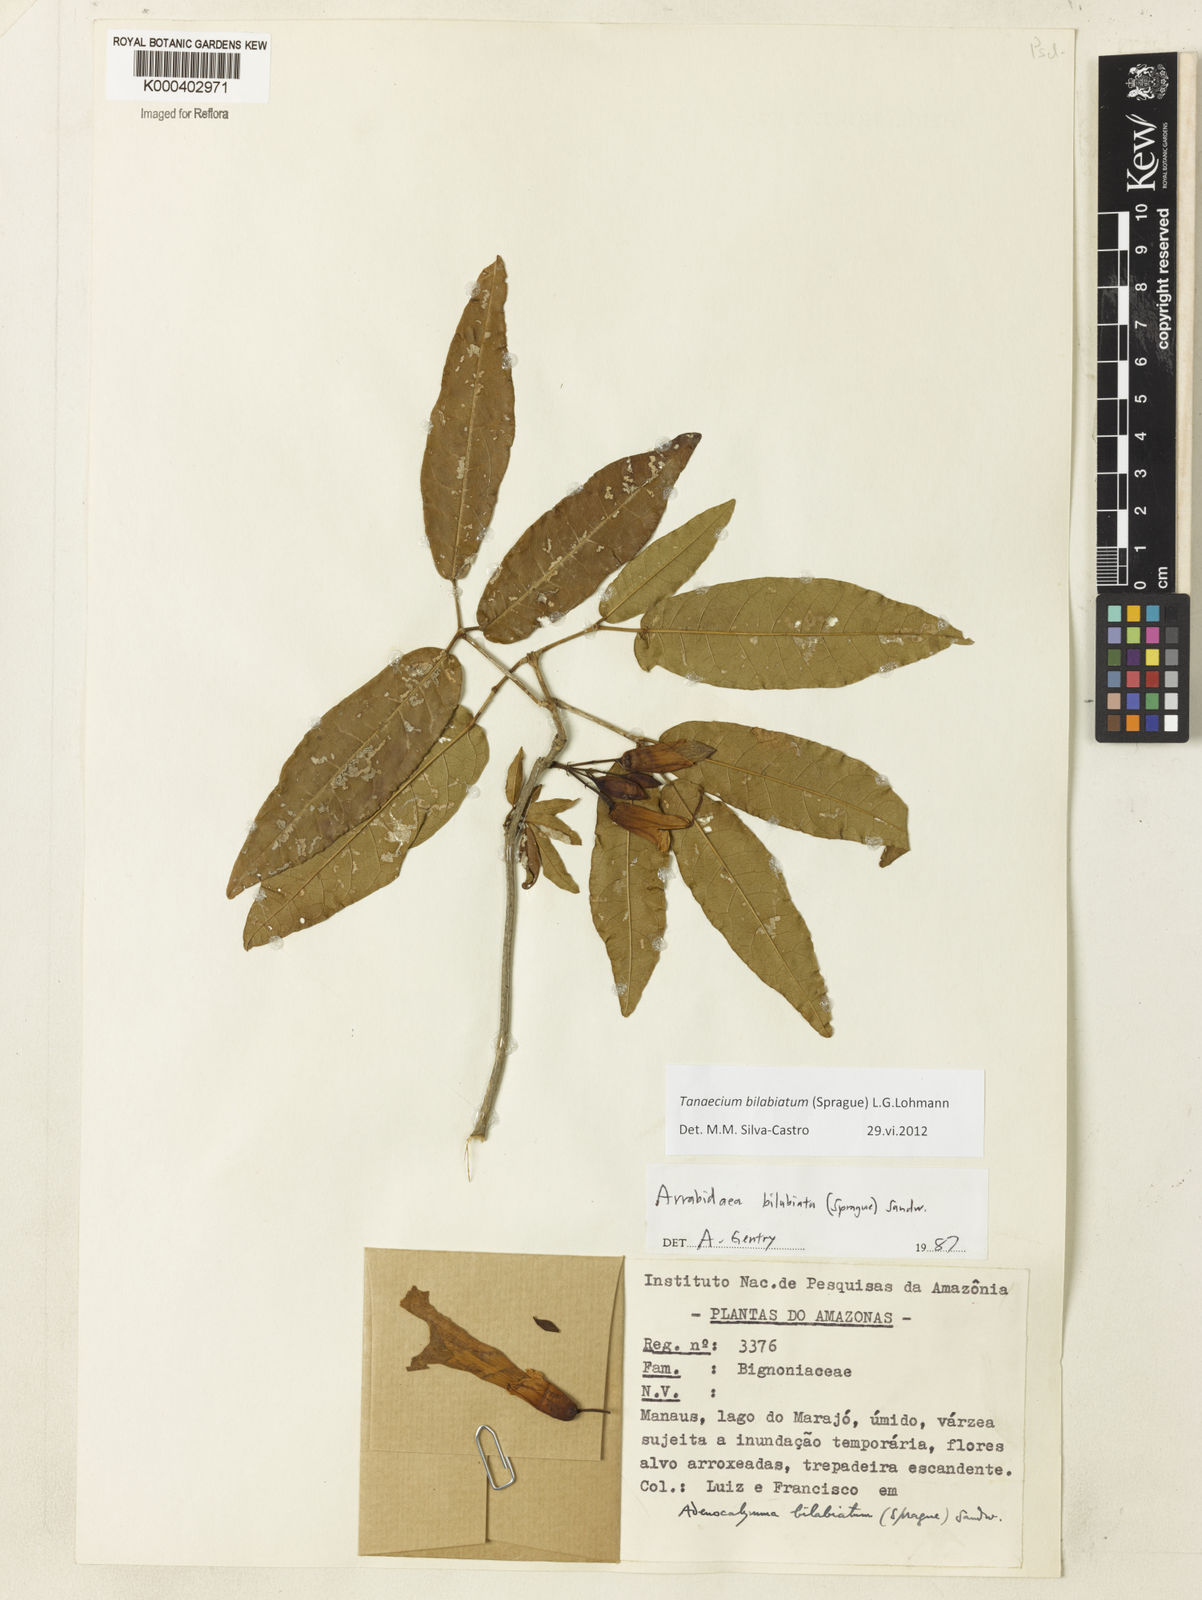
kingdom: Plantae
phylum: Tracheophyta
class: Magnoliopsida
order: Lamiales
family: Bignoniaceae
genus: Tanaecium
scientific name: Tanaecium bilabiatum
